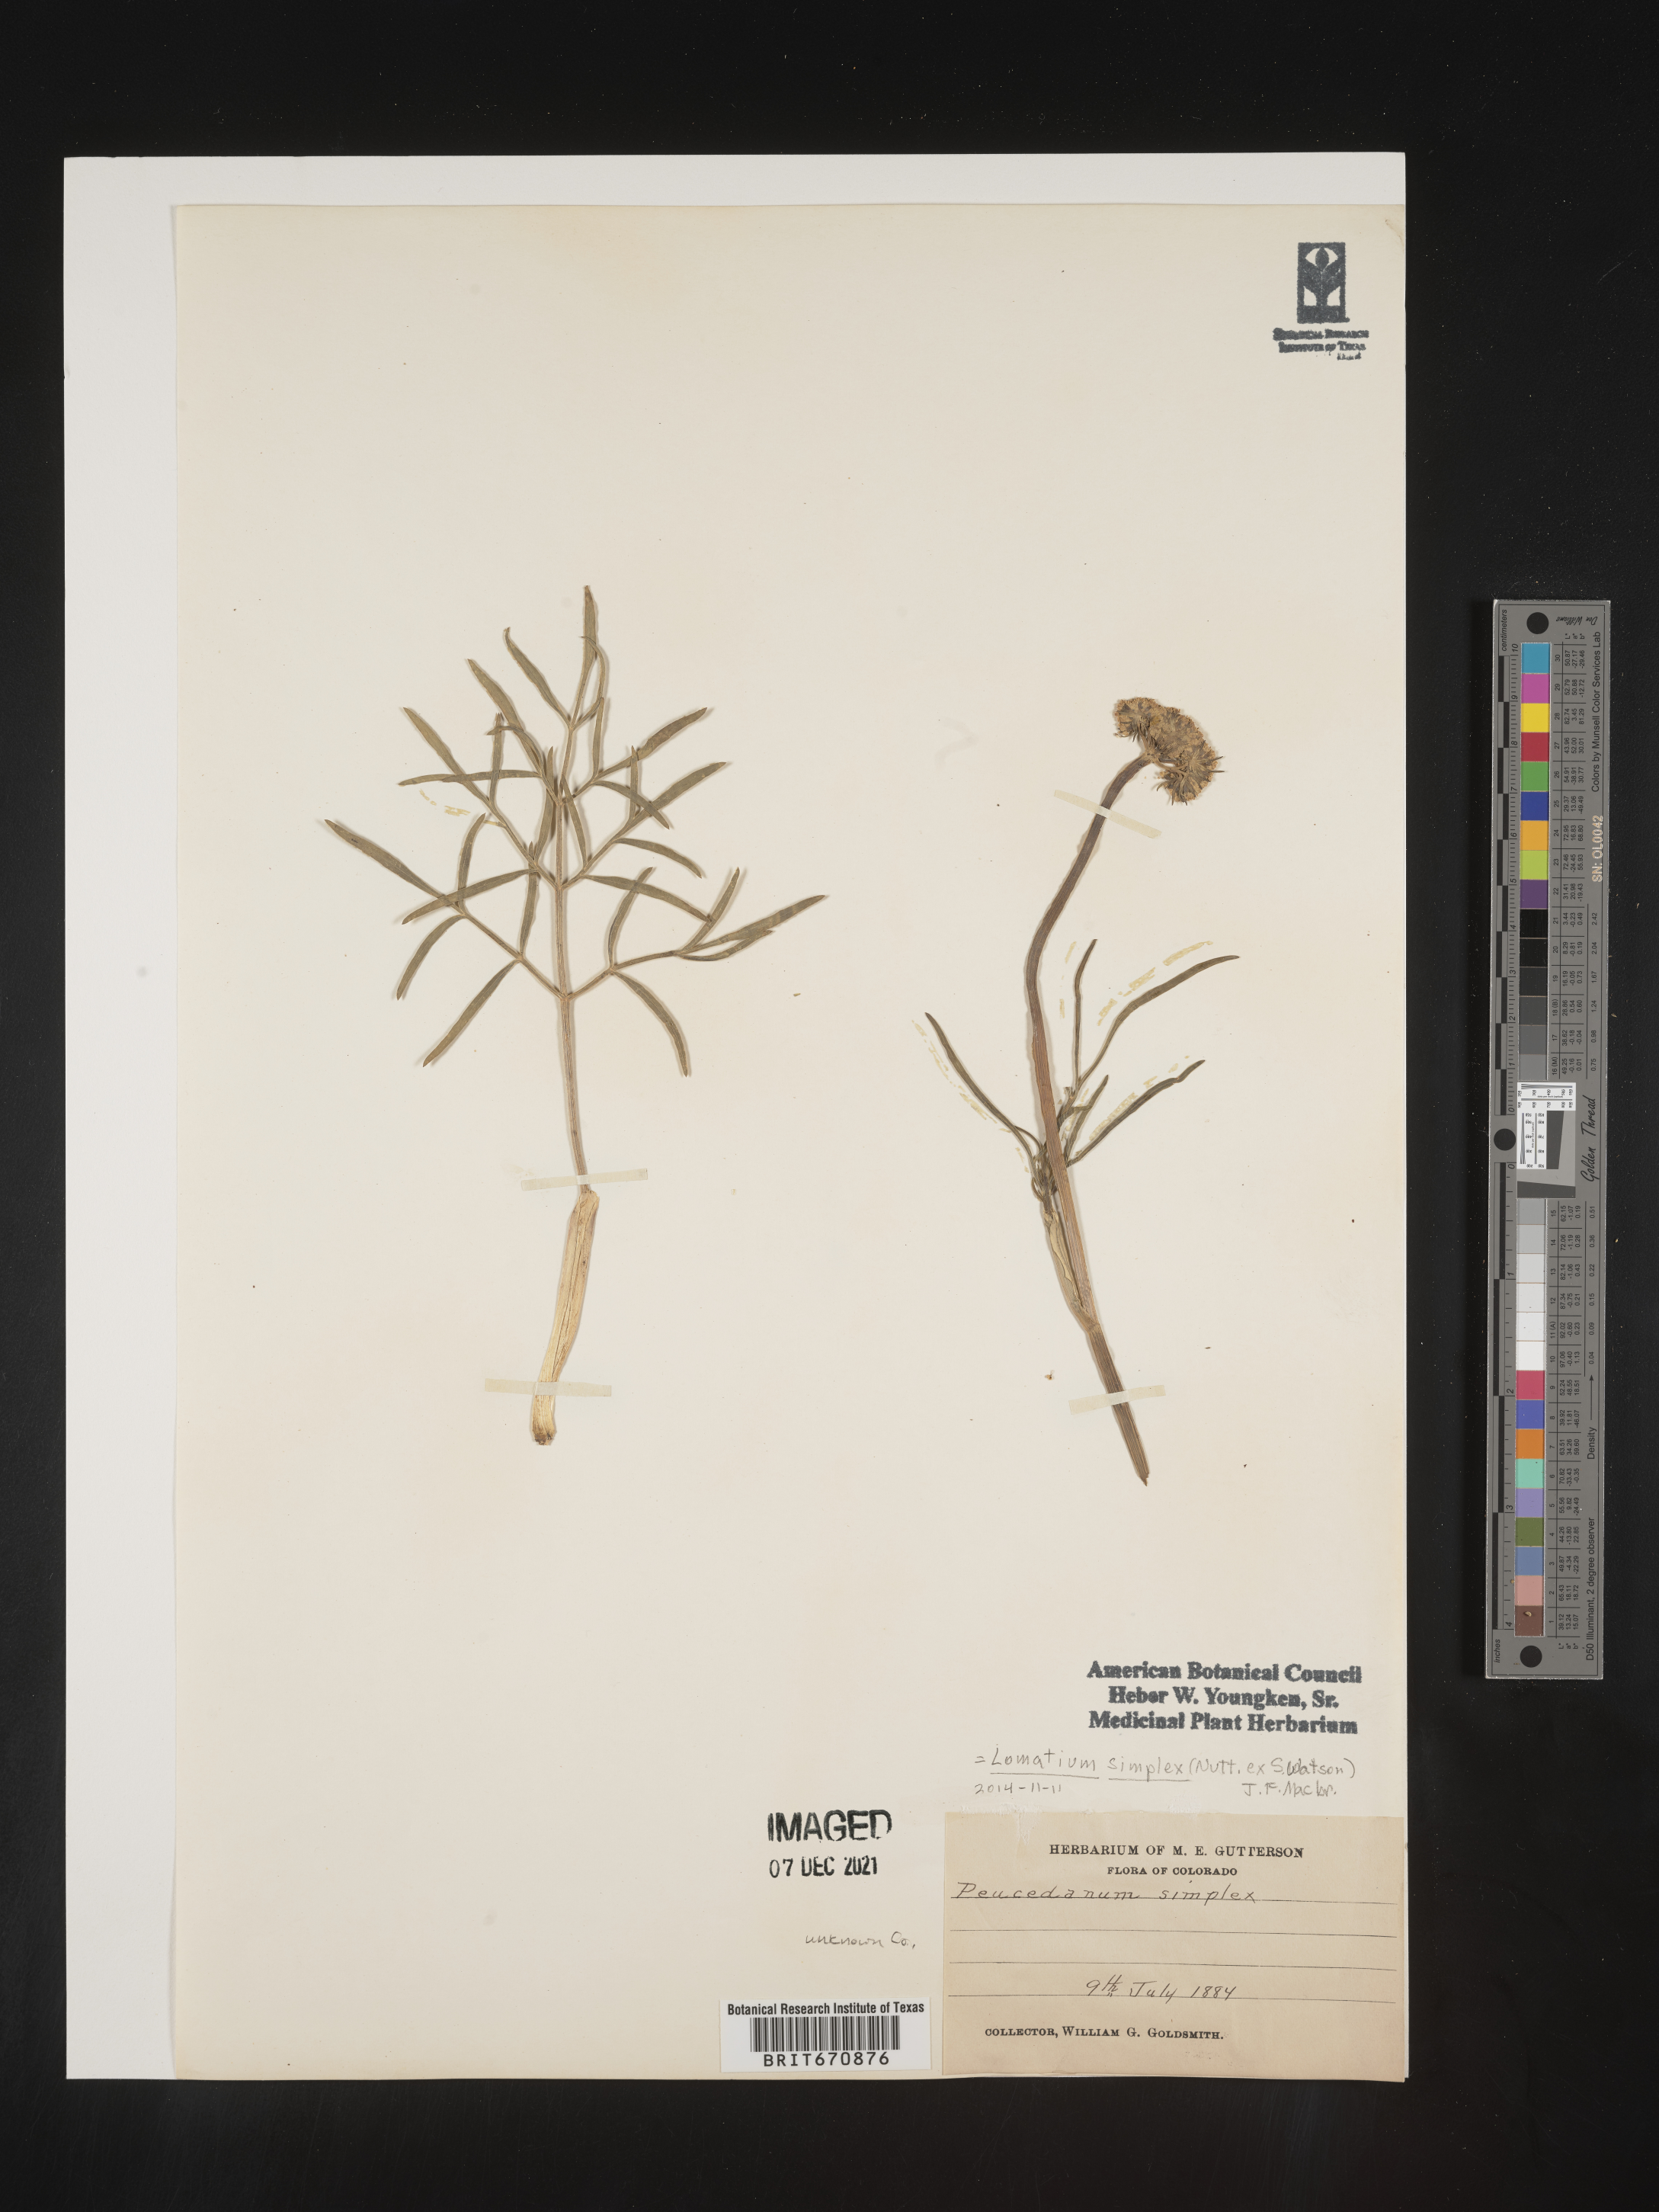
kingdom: Plantae
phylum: Tracheophyta
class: Magnoliopsida
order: Apiales
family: Apiaceae
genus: Lomatium
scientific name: Lomatium
